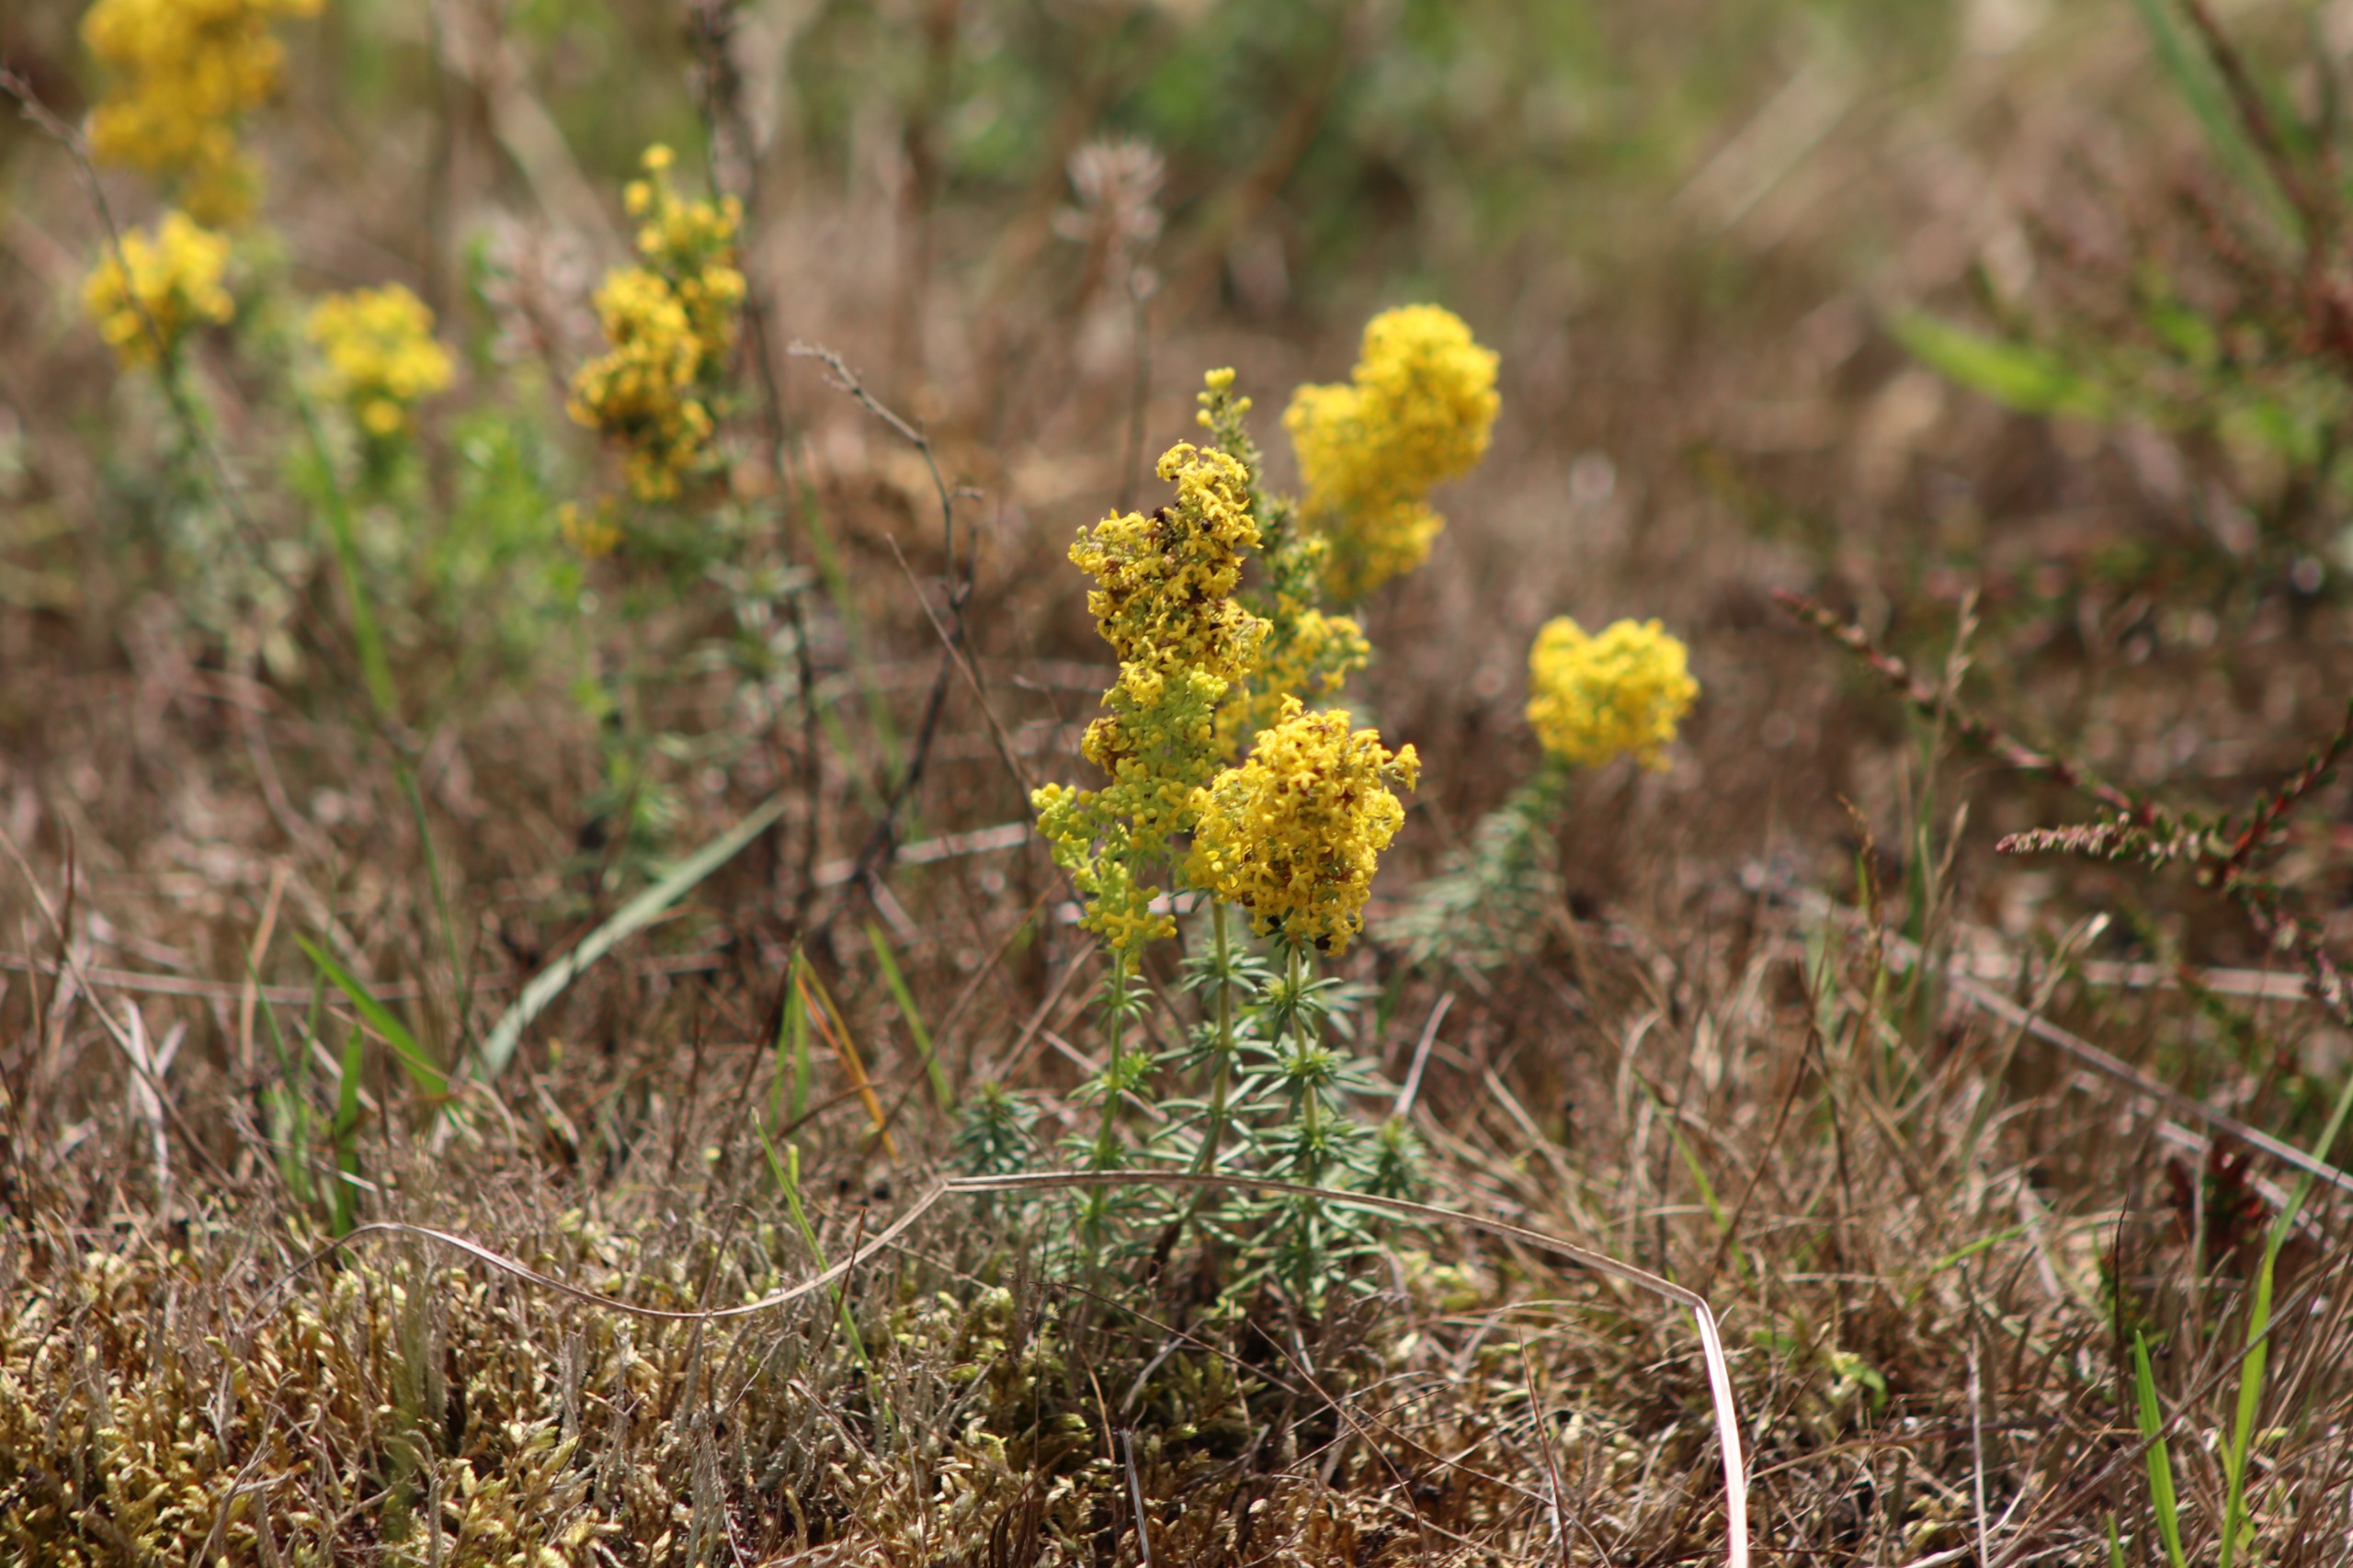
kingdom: Plantae
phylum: Tracheophyta
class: Magnoliopsida
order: Gentianales
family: Rubiaceae
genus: Galium
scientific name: Galium verum
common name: Gul snerre
